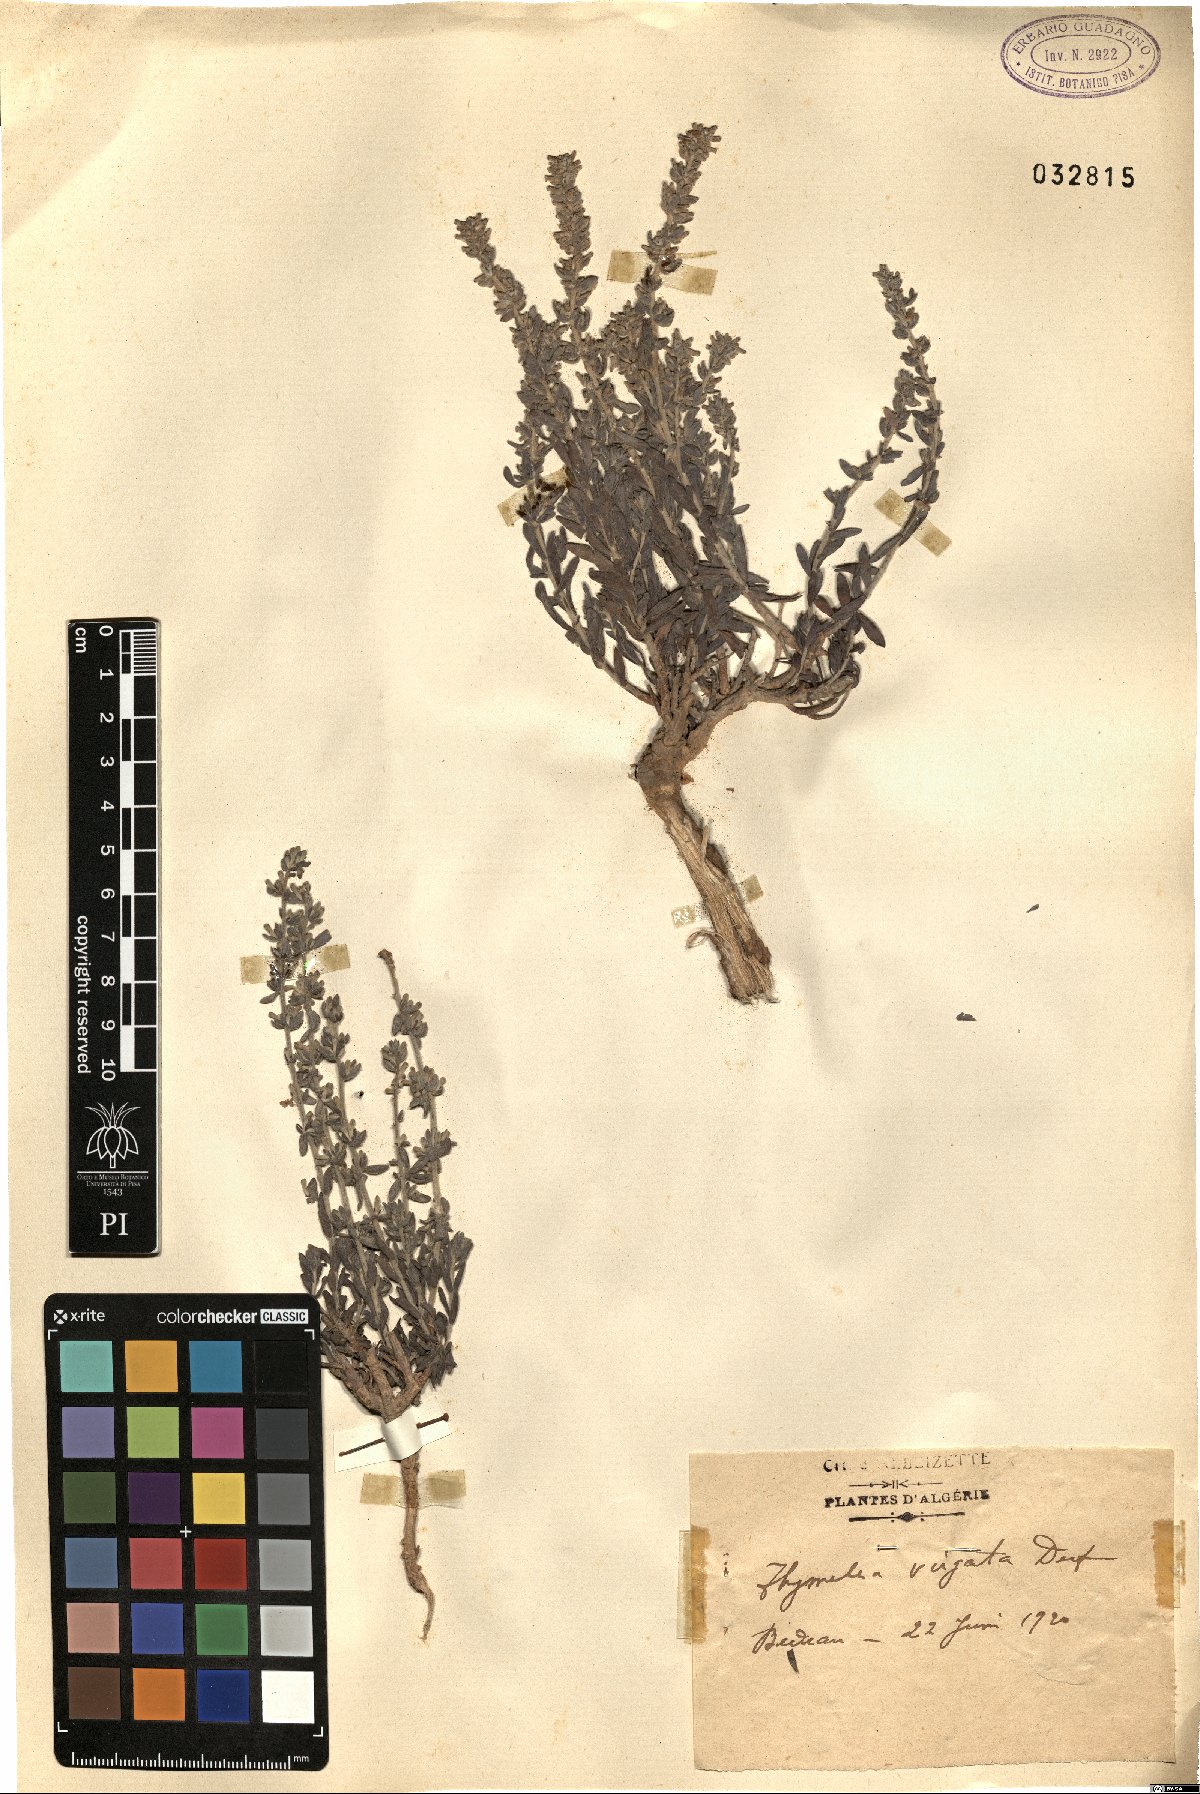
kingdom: Plantae
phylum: Tracheophyta
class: Magnoliopsida
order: Malvales
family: Thymelaeaceae
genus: Thymelaea
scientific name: Thymelaea virgata
